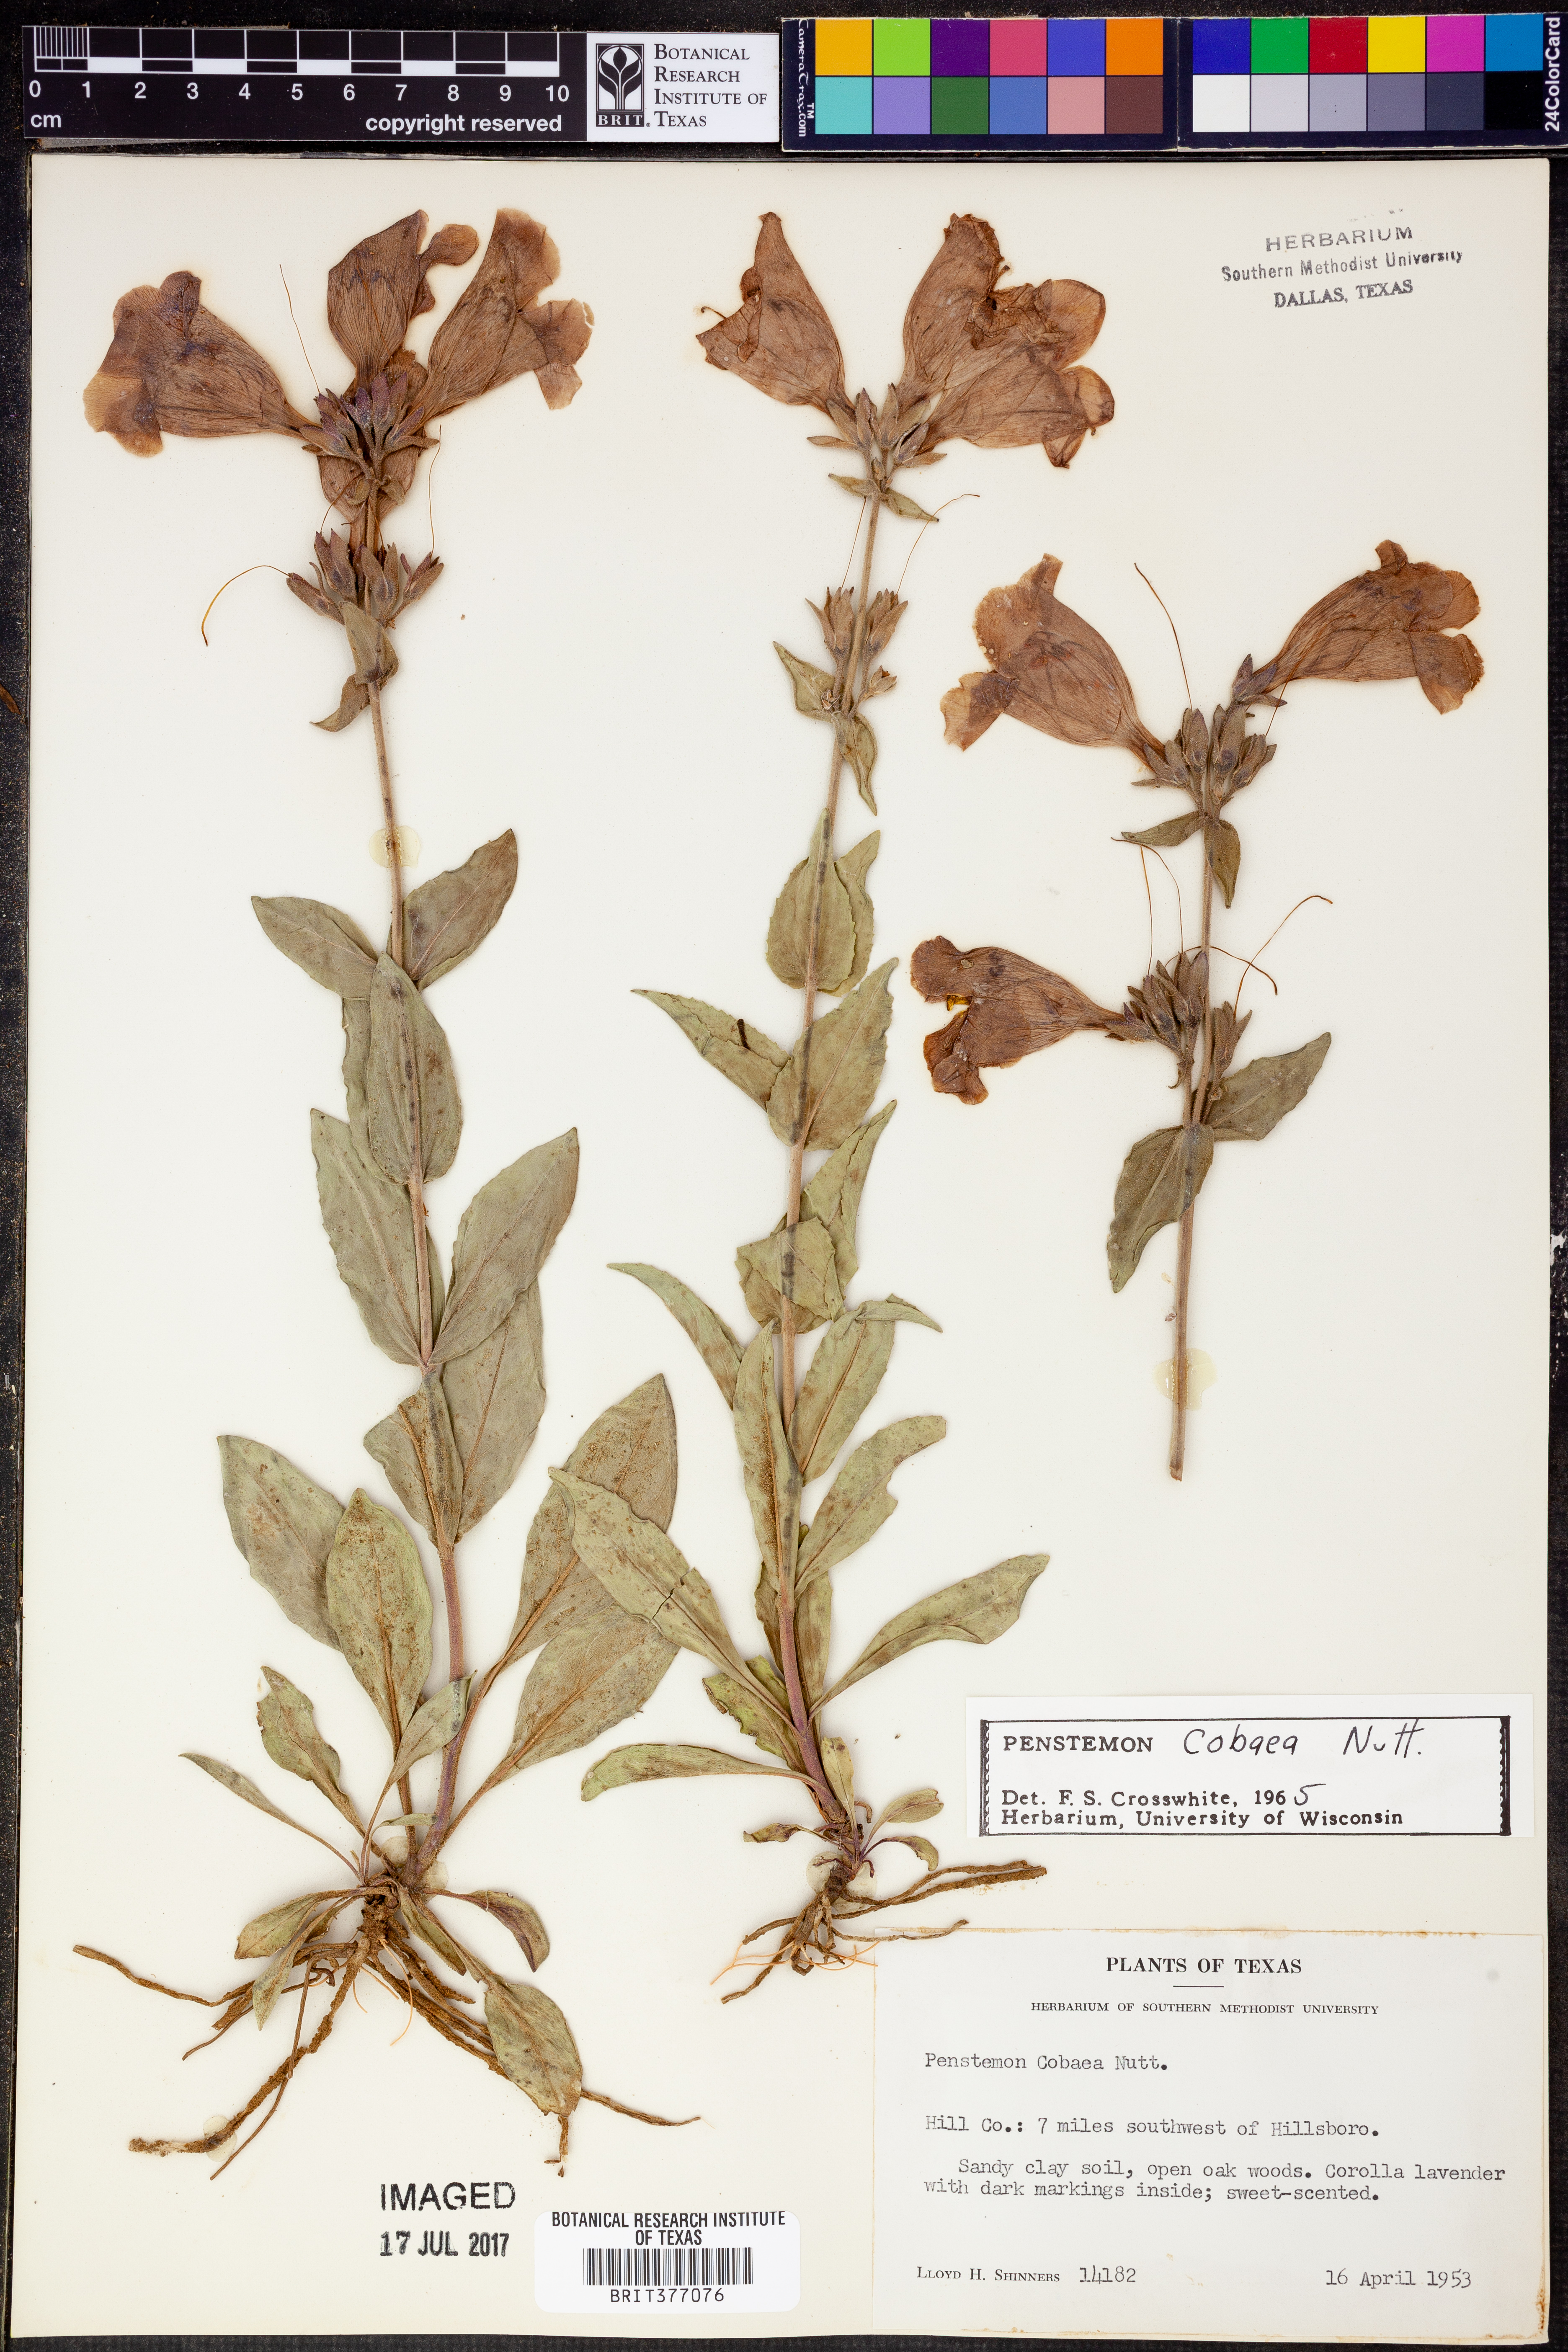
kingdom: Plantae
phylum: Tracheophyta
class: Magnoliopsida
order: Lamiales
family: Plantaginaceae
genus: Penstemon
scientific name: Penstemon cobaea
